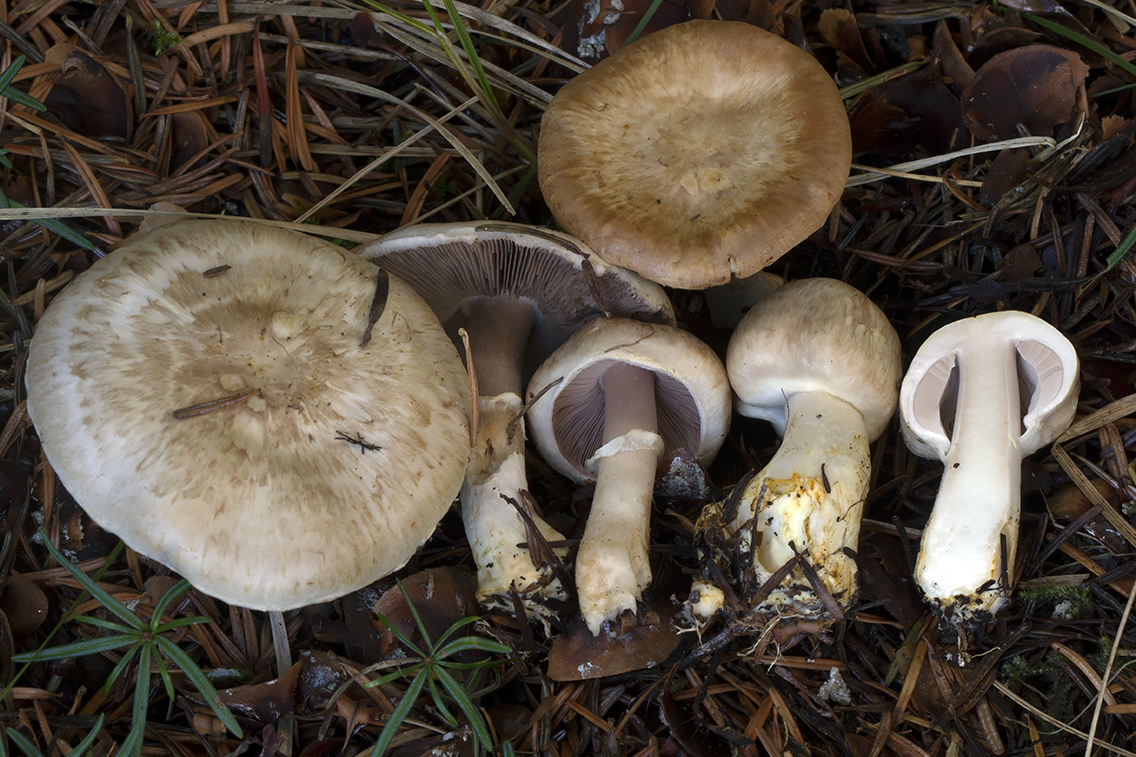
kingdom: Fungi
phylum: Basidiomycota
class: Agaricomycetes
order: Agaricales
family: Agaricaceae
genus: Agaricus
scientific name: Agaricus brunneolus
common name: purpur-champignon
